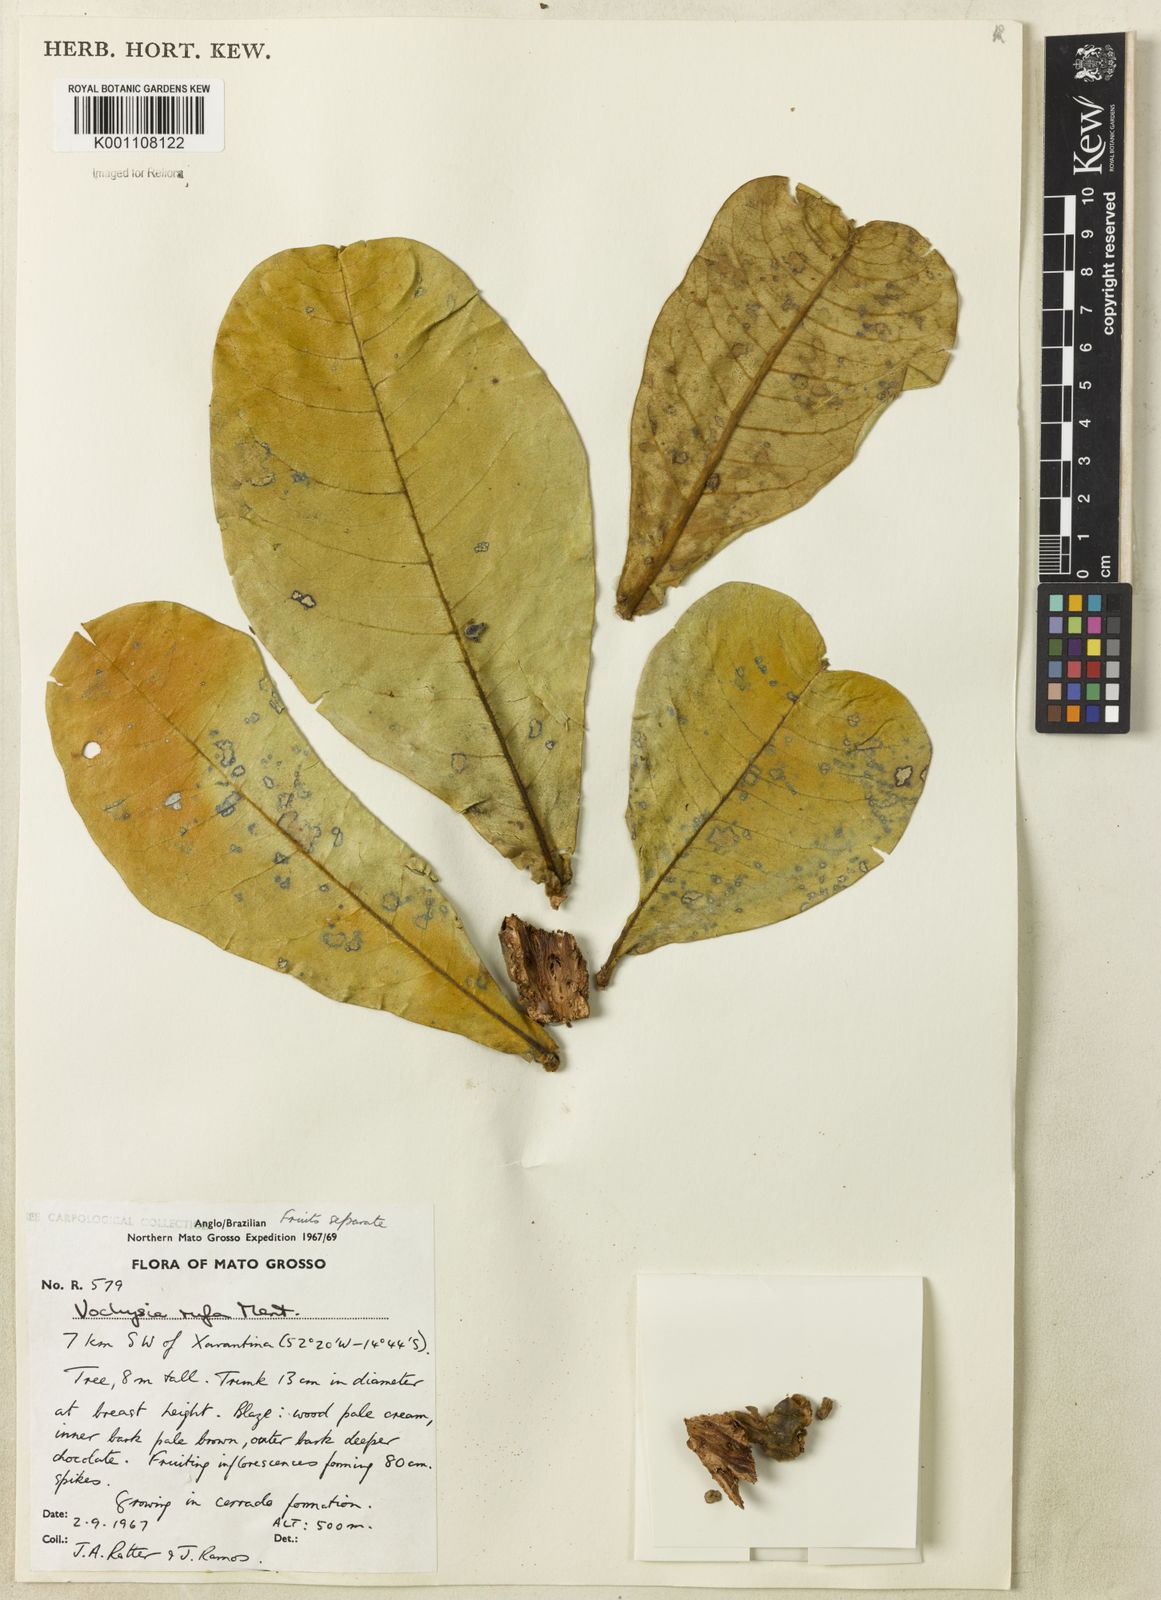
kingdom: Plantae
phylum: Tracheophyta
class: Magnoliopsida
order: Myrtales
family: Vochysiaceae
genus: Vochysia
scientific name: Vochysia rufa
